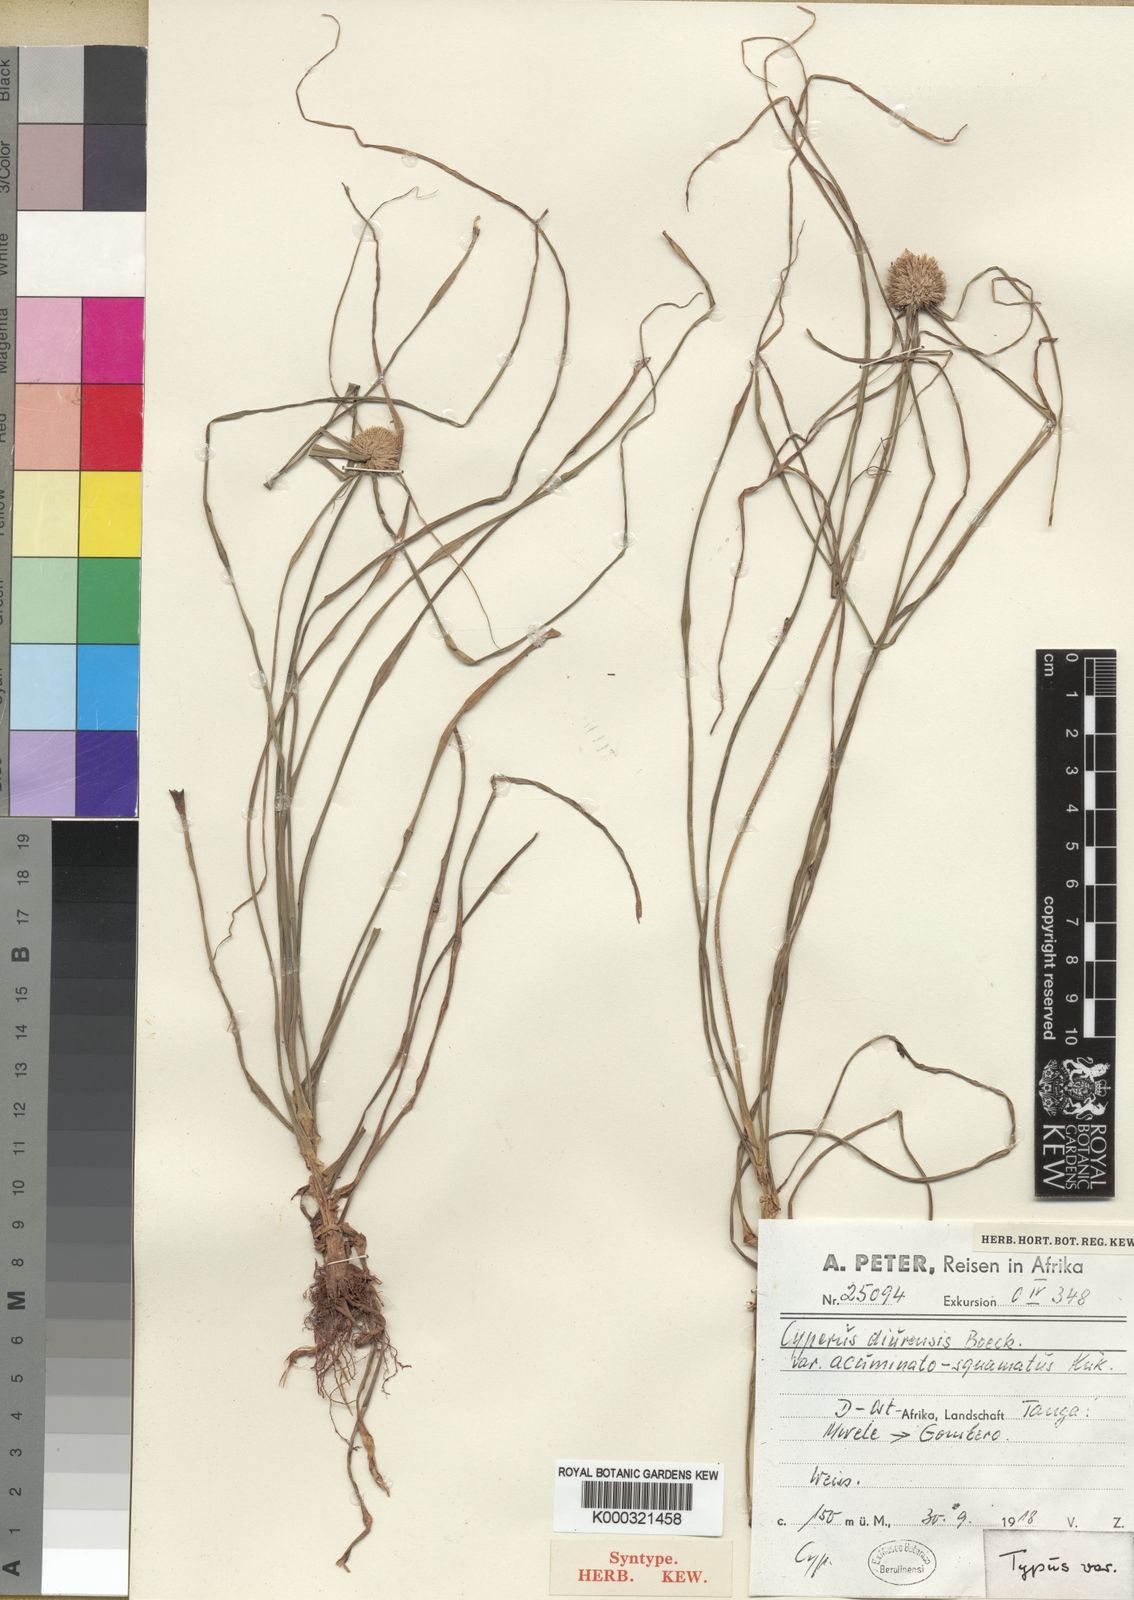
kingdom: Plantae
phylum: Tracheophyta
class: Liliopsida
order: Poales
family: Cyperaceae
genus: Cyperus
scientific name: Cyperus diurensis
